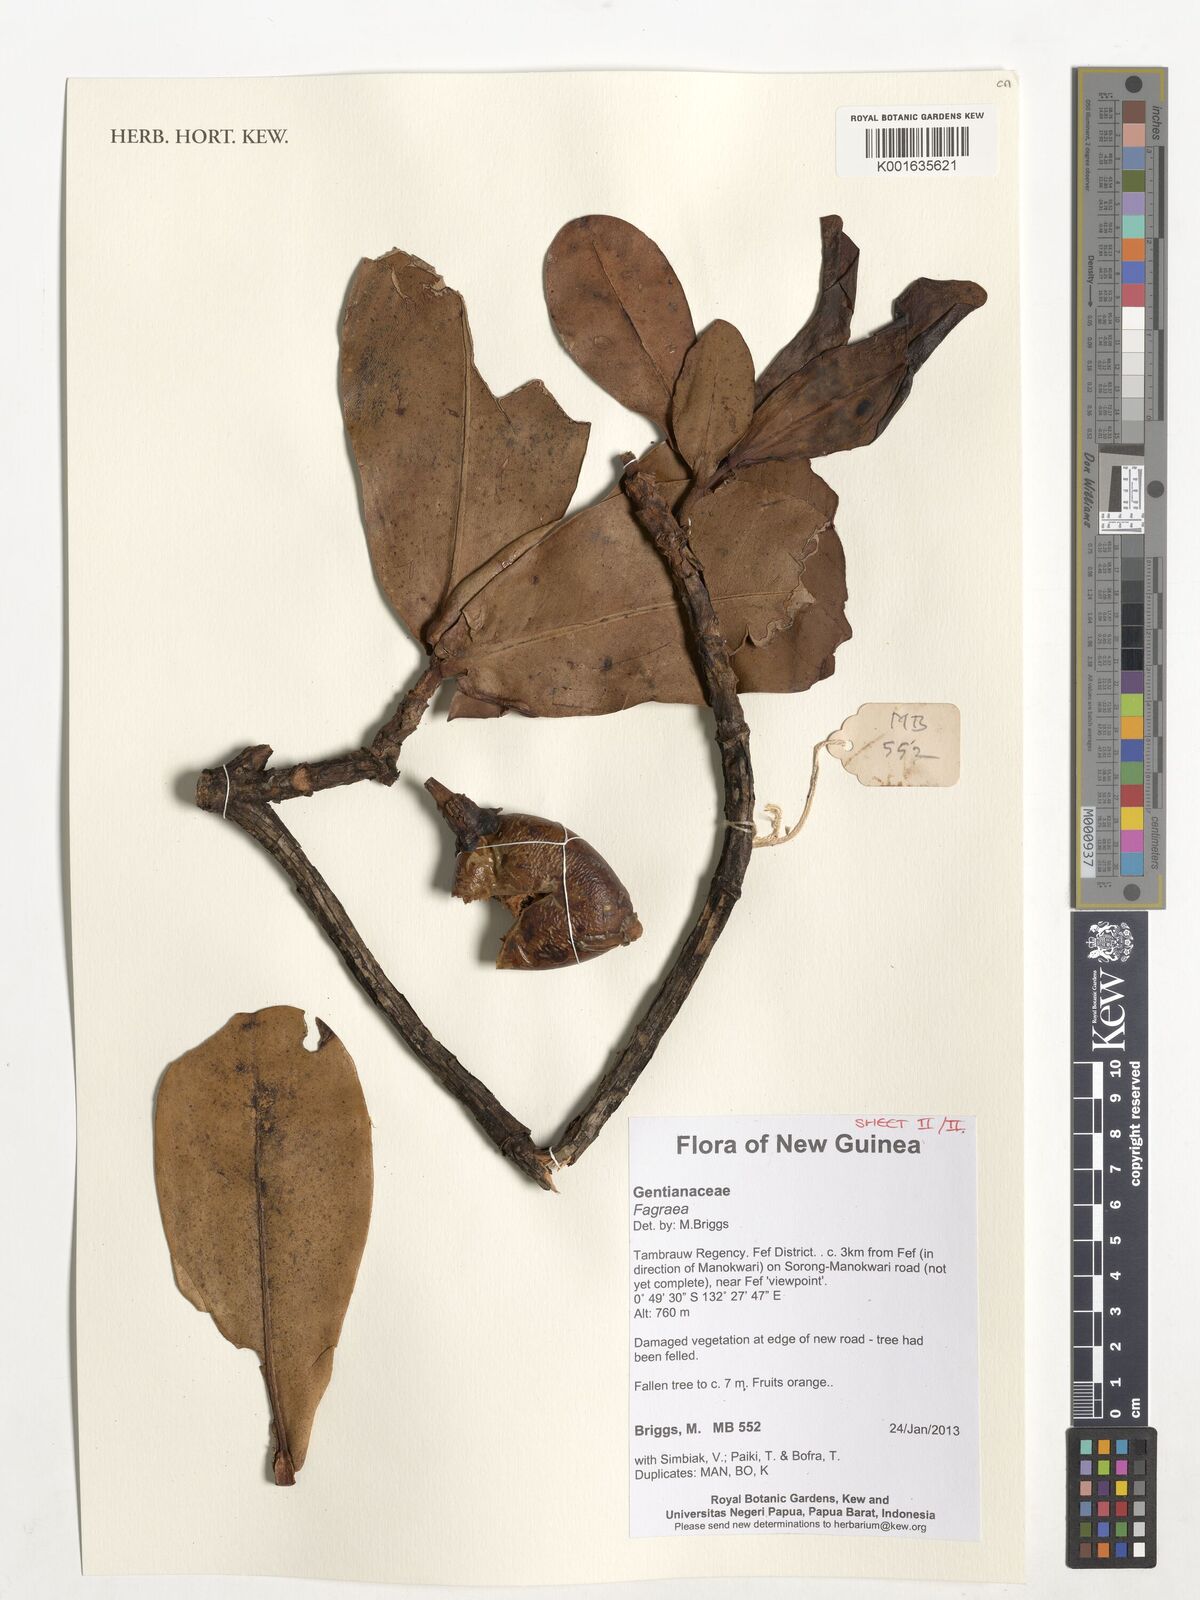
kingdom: Plantae
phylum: Tracheophyta
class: Magnoliopsida
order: Gentianales
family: Gentianaceae
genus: Fagraea
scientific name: Fagraea
